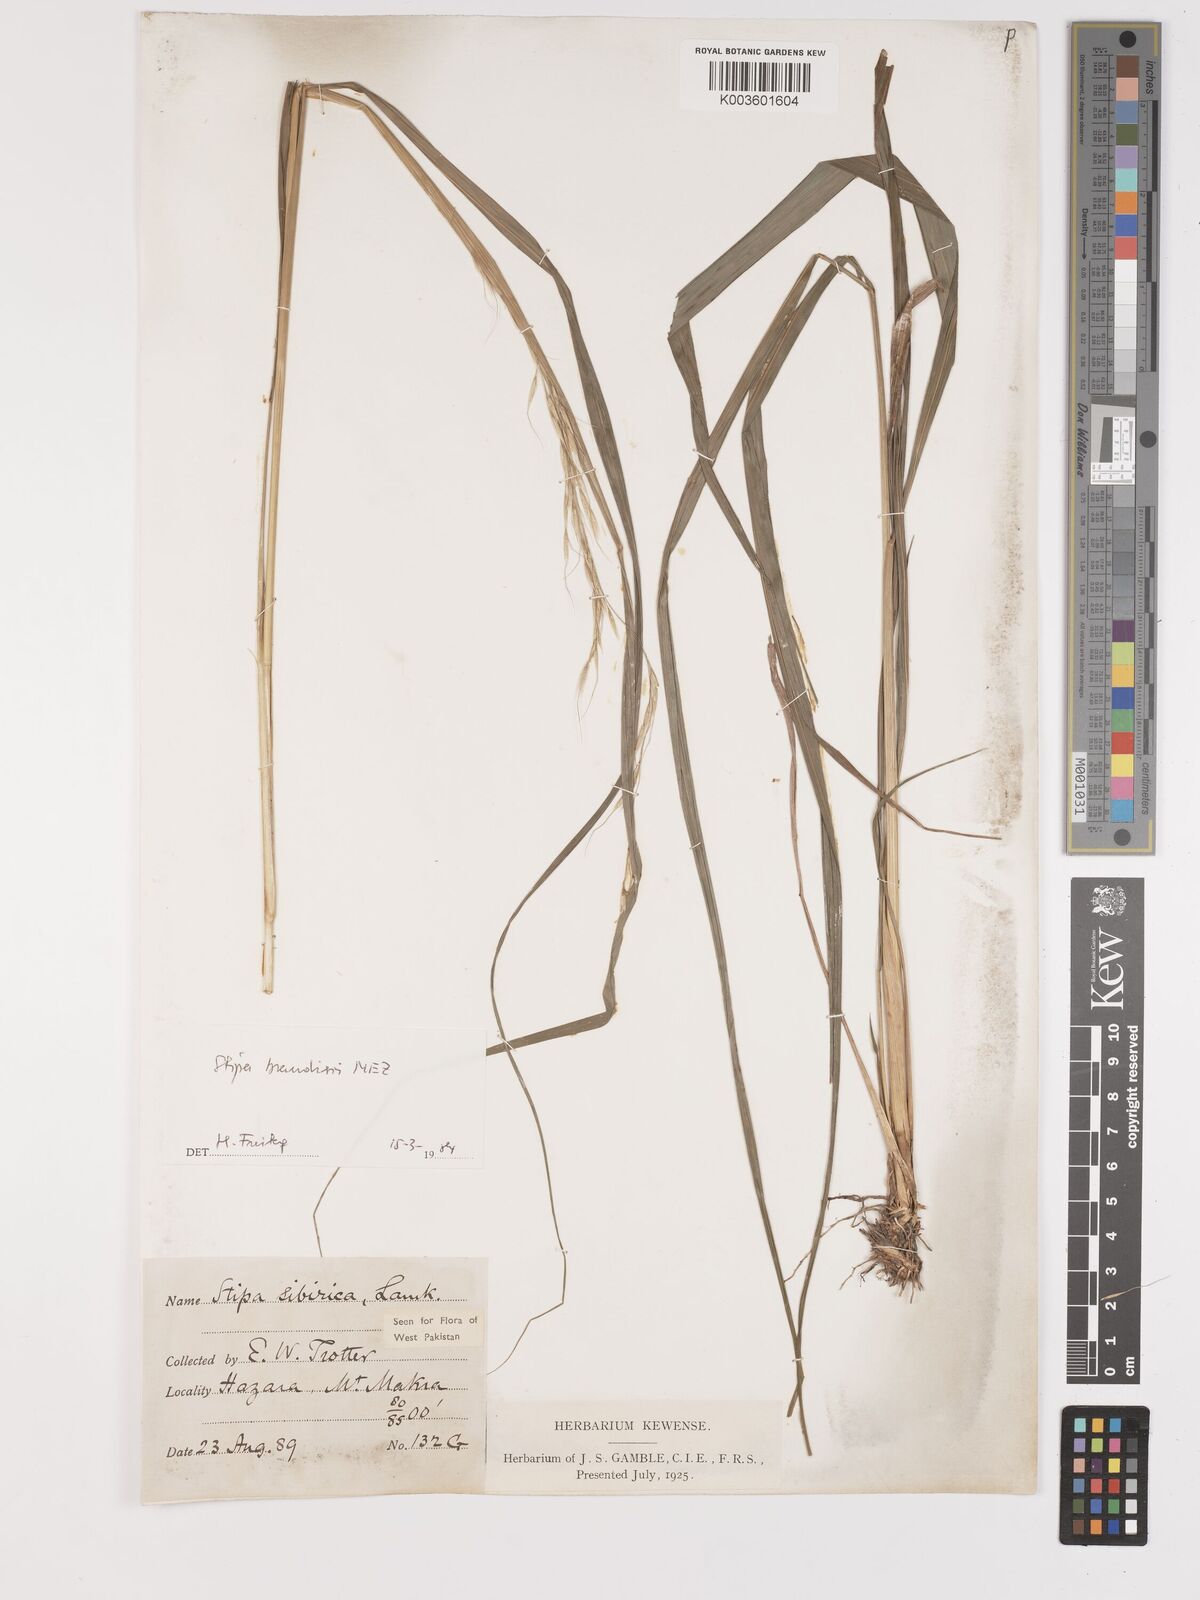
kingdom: Plantae
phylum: Tracheophyta
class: Liliopsida
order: Poales
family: Poaceae
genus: Achnatherum
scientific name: Achnatherum brandisii
